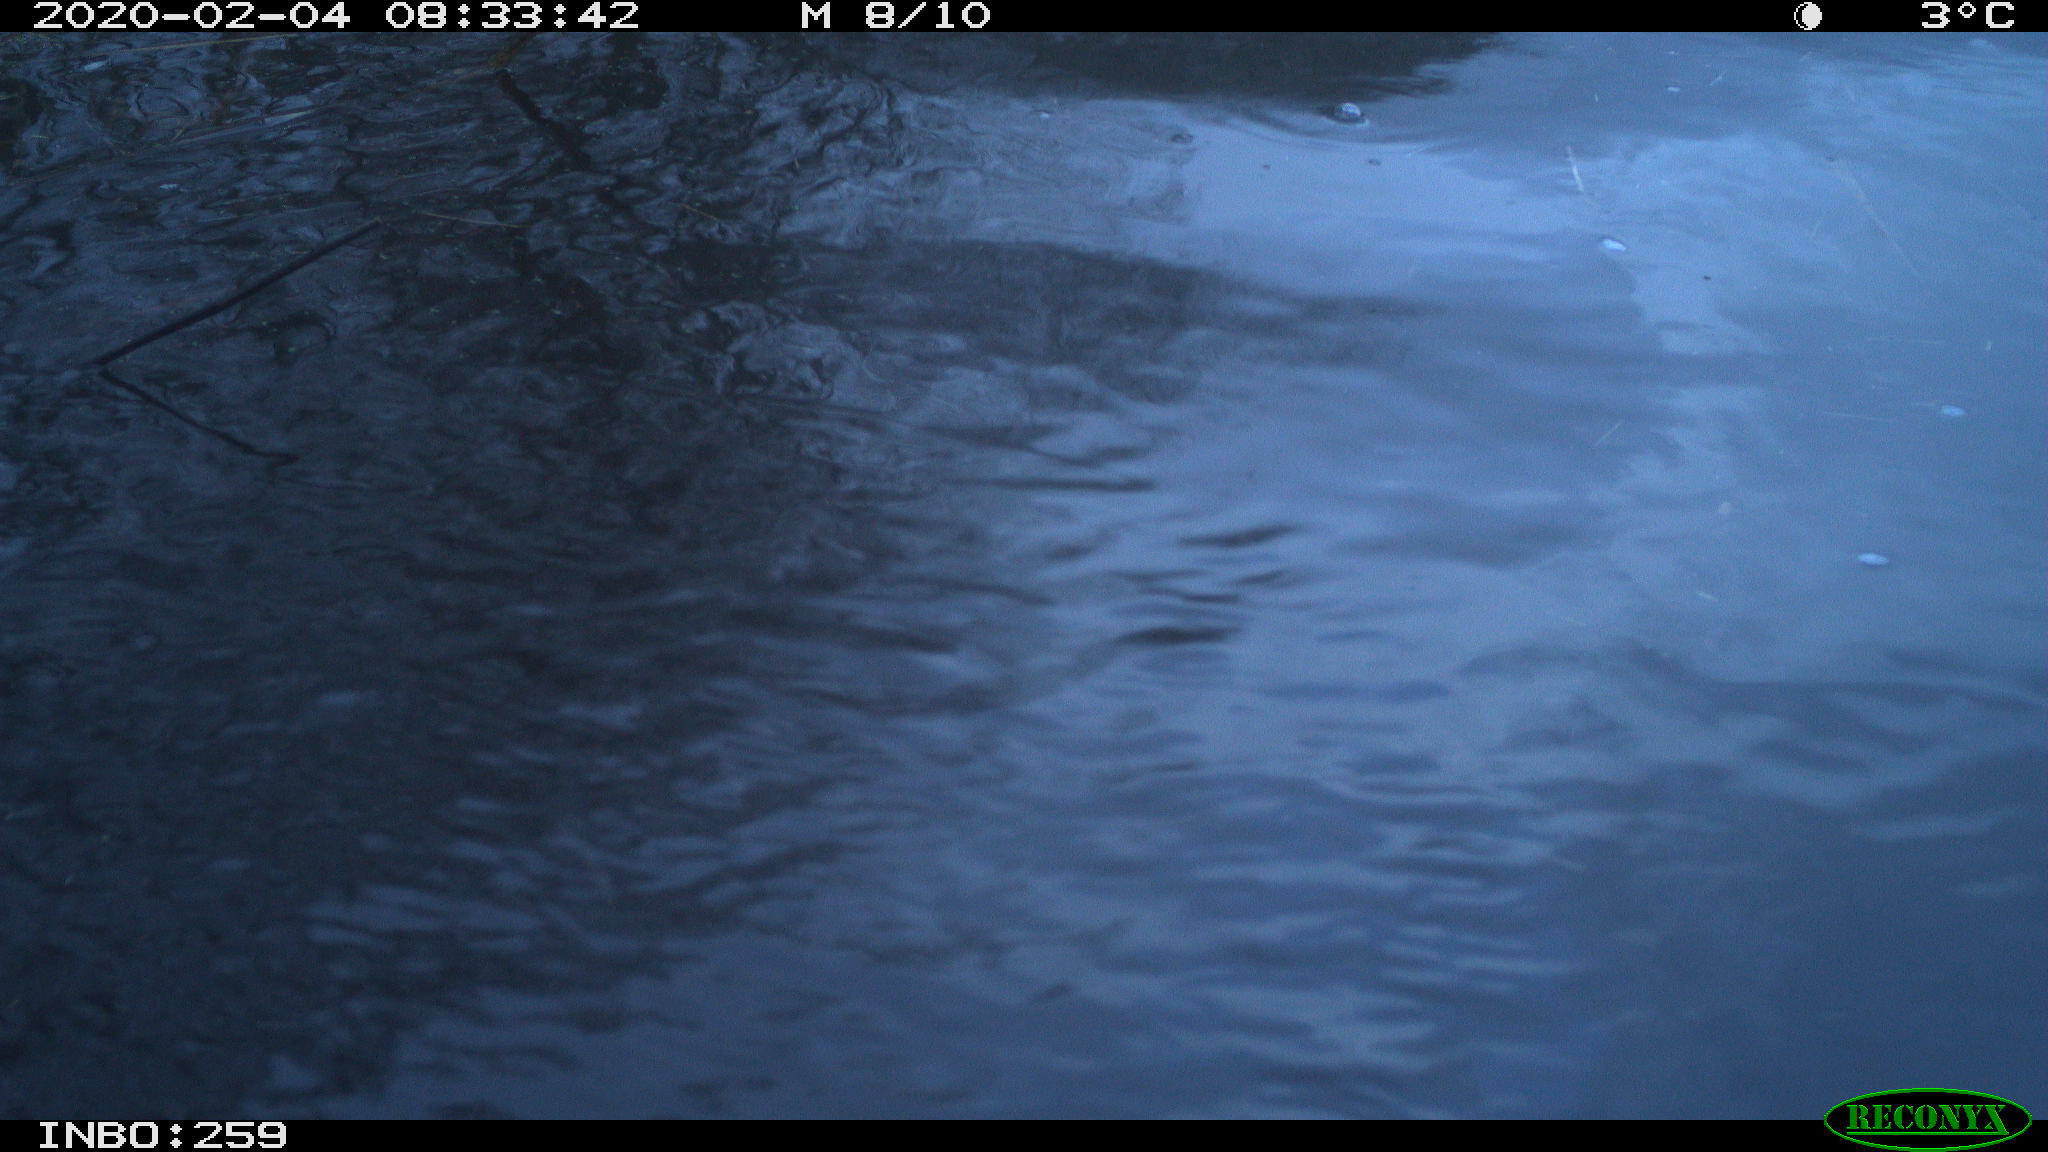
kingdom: Animalia
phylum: Chordata
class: Aves
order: Gruiformes
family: Rallidae
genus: Gallinula
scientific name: Gallinula chloropus
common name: Common moorhen
